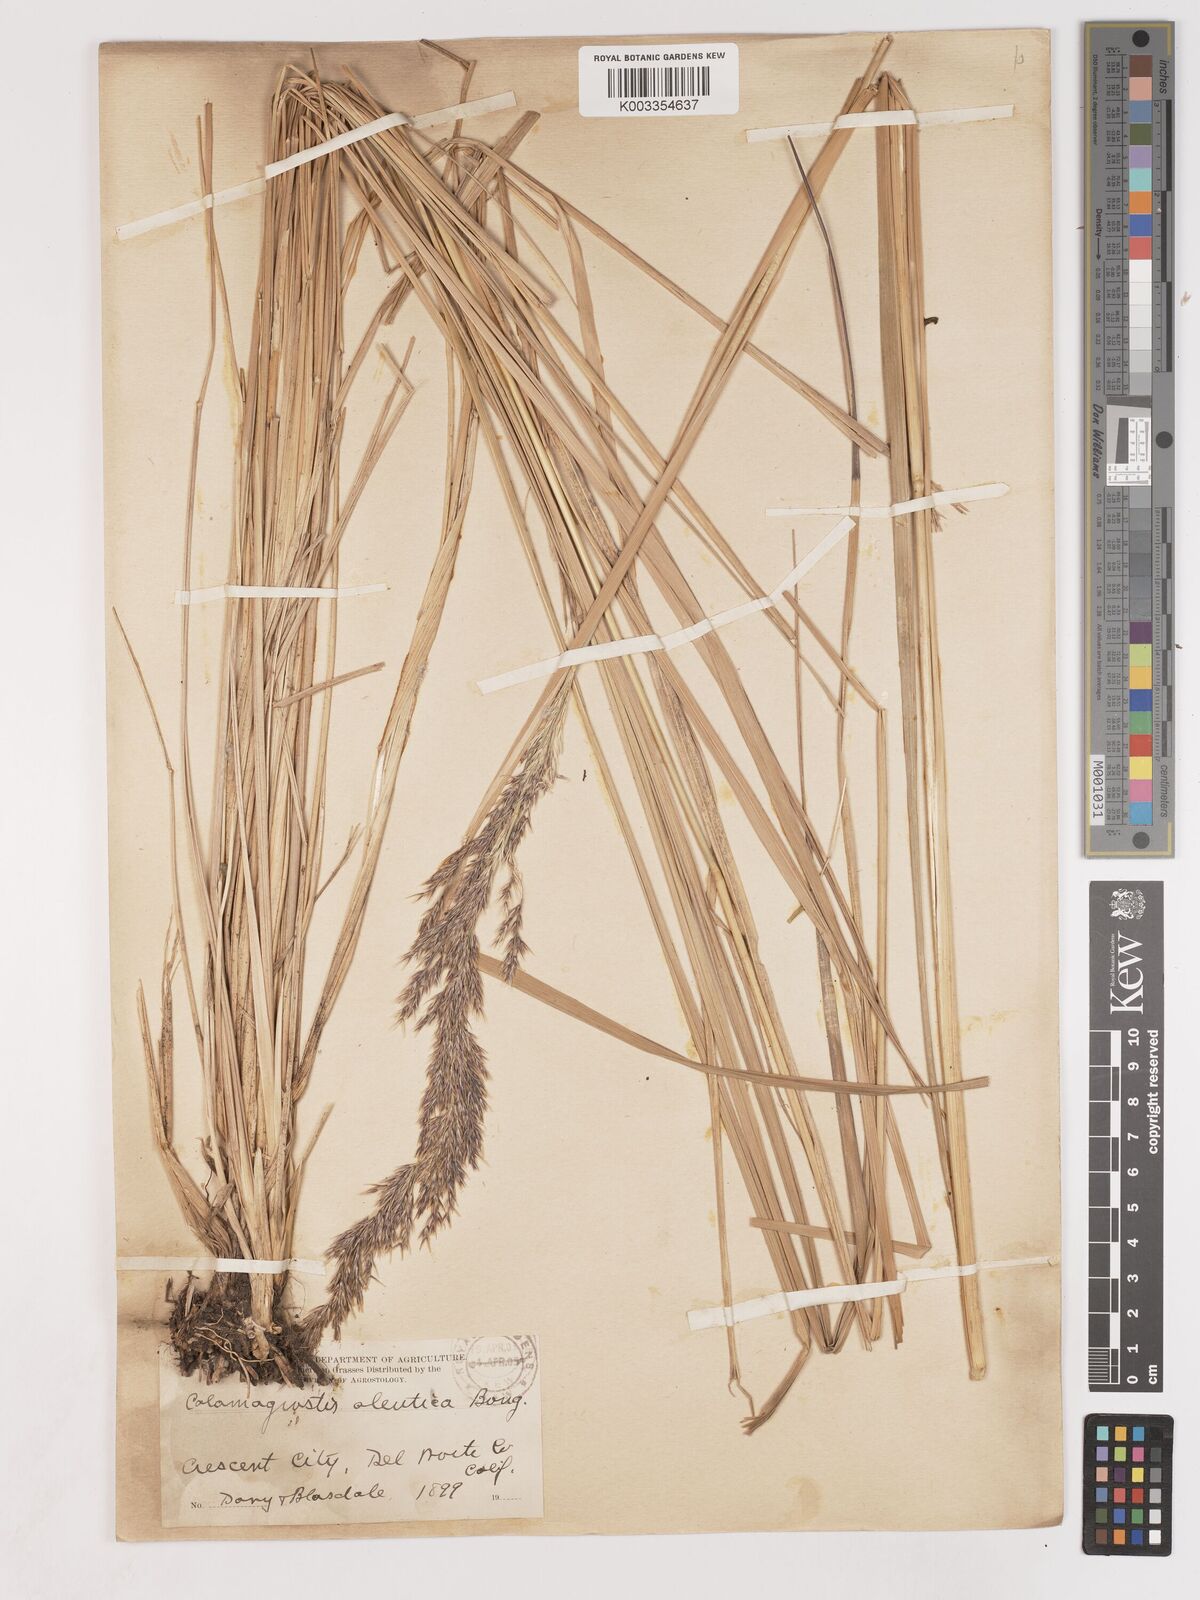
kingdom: Plantae
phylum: Tracheophyta
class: Liliopsida
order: Poales
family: Poaceae
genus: Calamagrostis
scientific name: Calamagrostis nutkaensis
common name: Pacific reed grass
